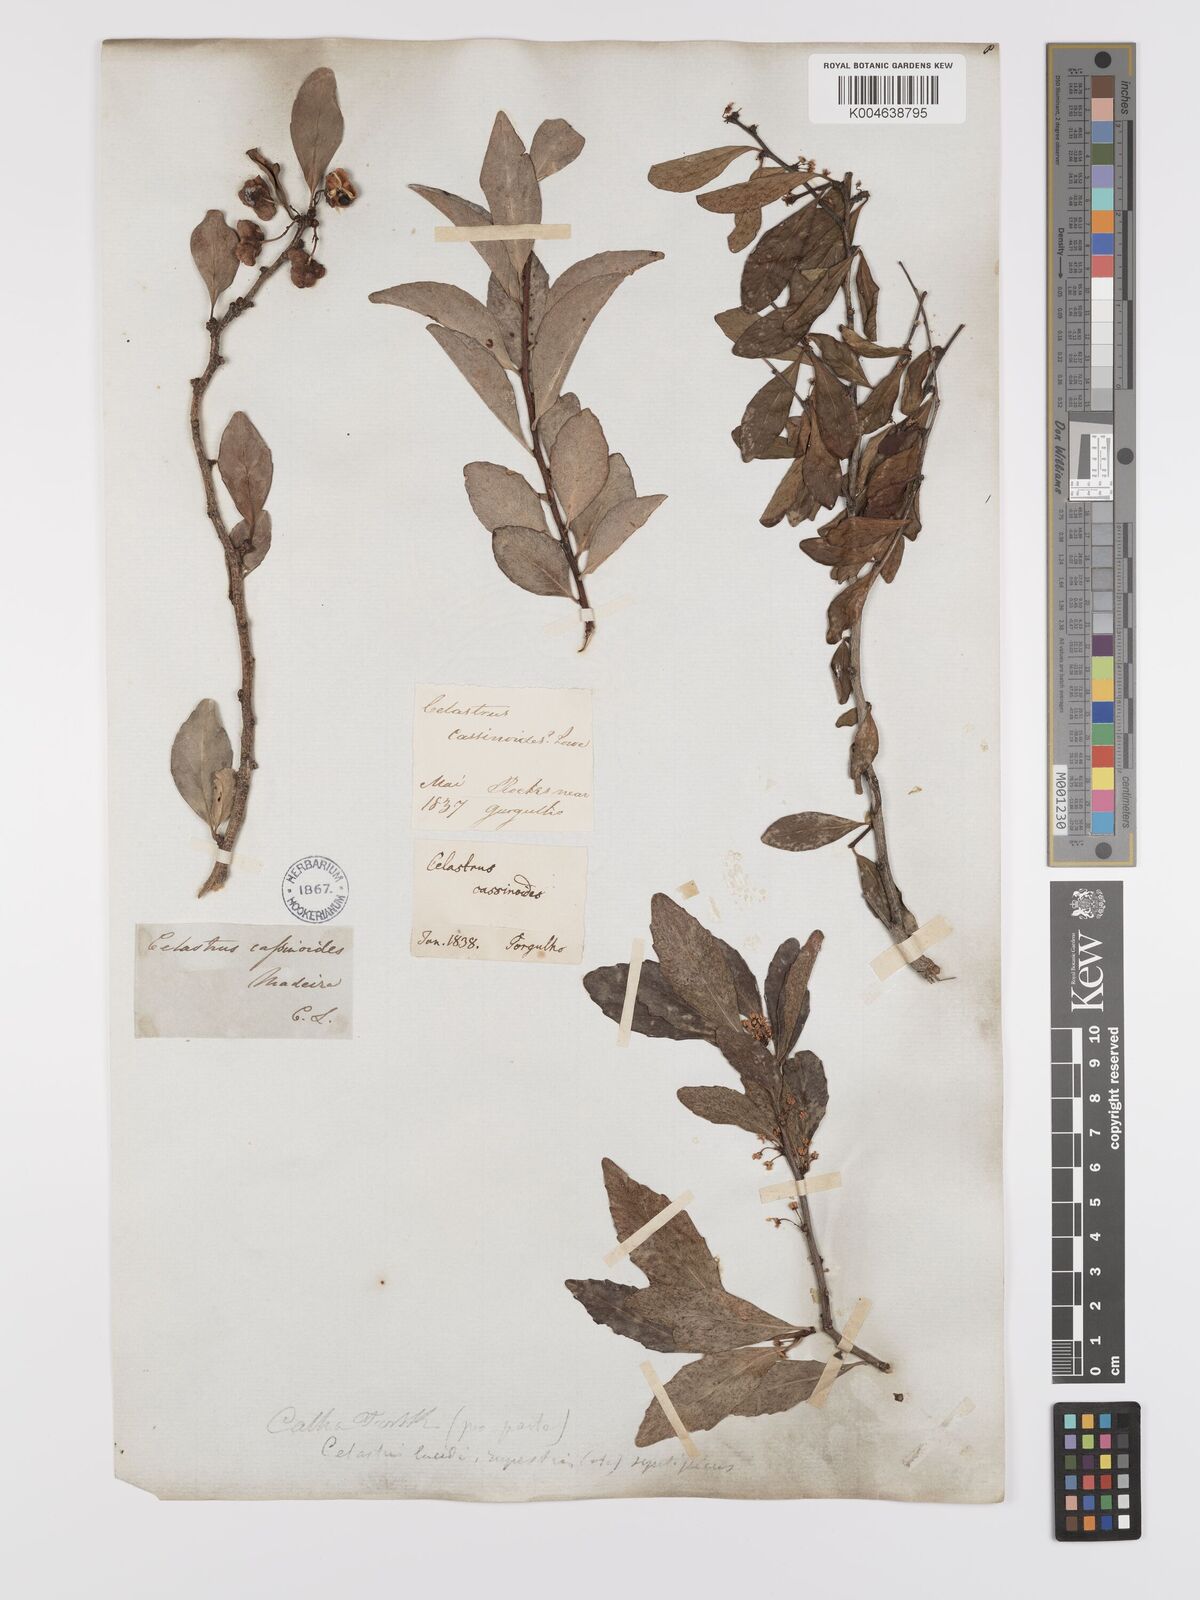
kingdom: Plantae
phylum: Tracheophyta
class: Magnoliopsida
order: Celastrales
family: Celastraceae
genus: Gymnosporia
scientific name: Gymnosporia
